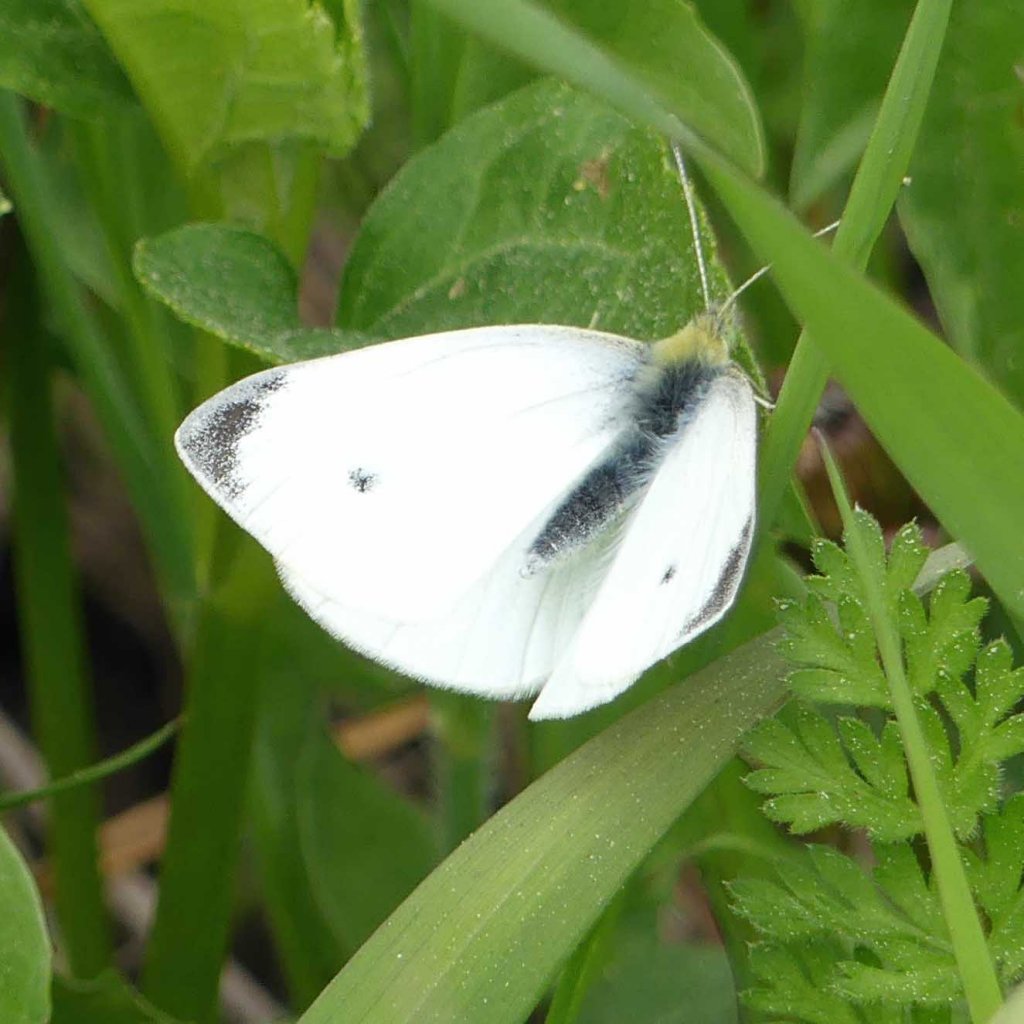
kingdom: Animalia
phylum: Arthropoda
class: Insecta
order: Lepidoptera
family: Pieridae
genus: Pieris
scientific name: Pieris rapae
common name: Cabbage White
